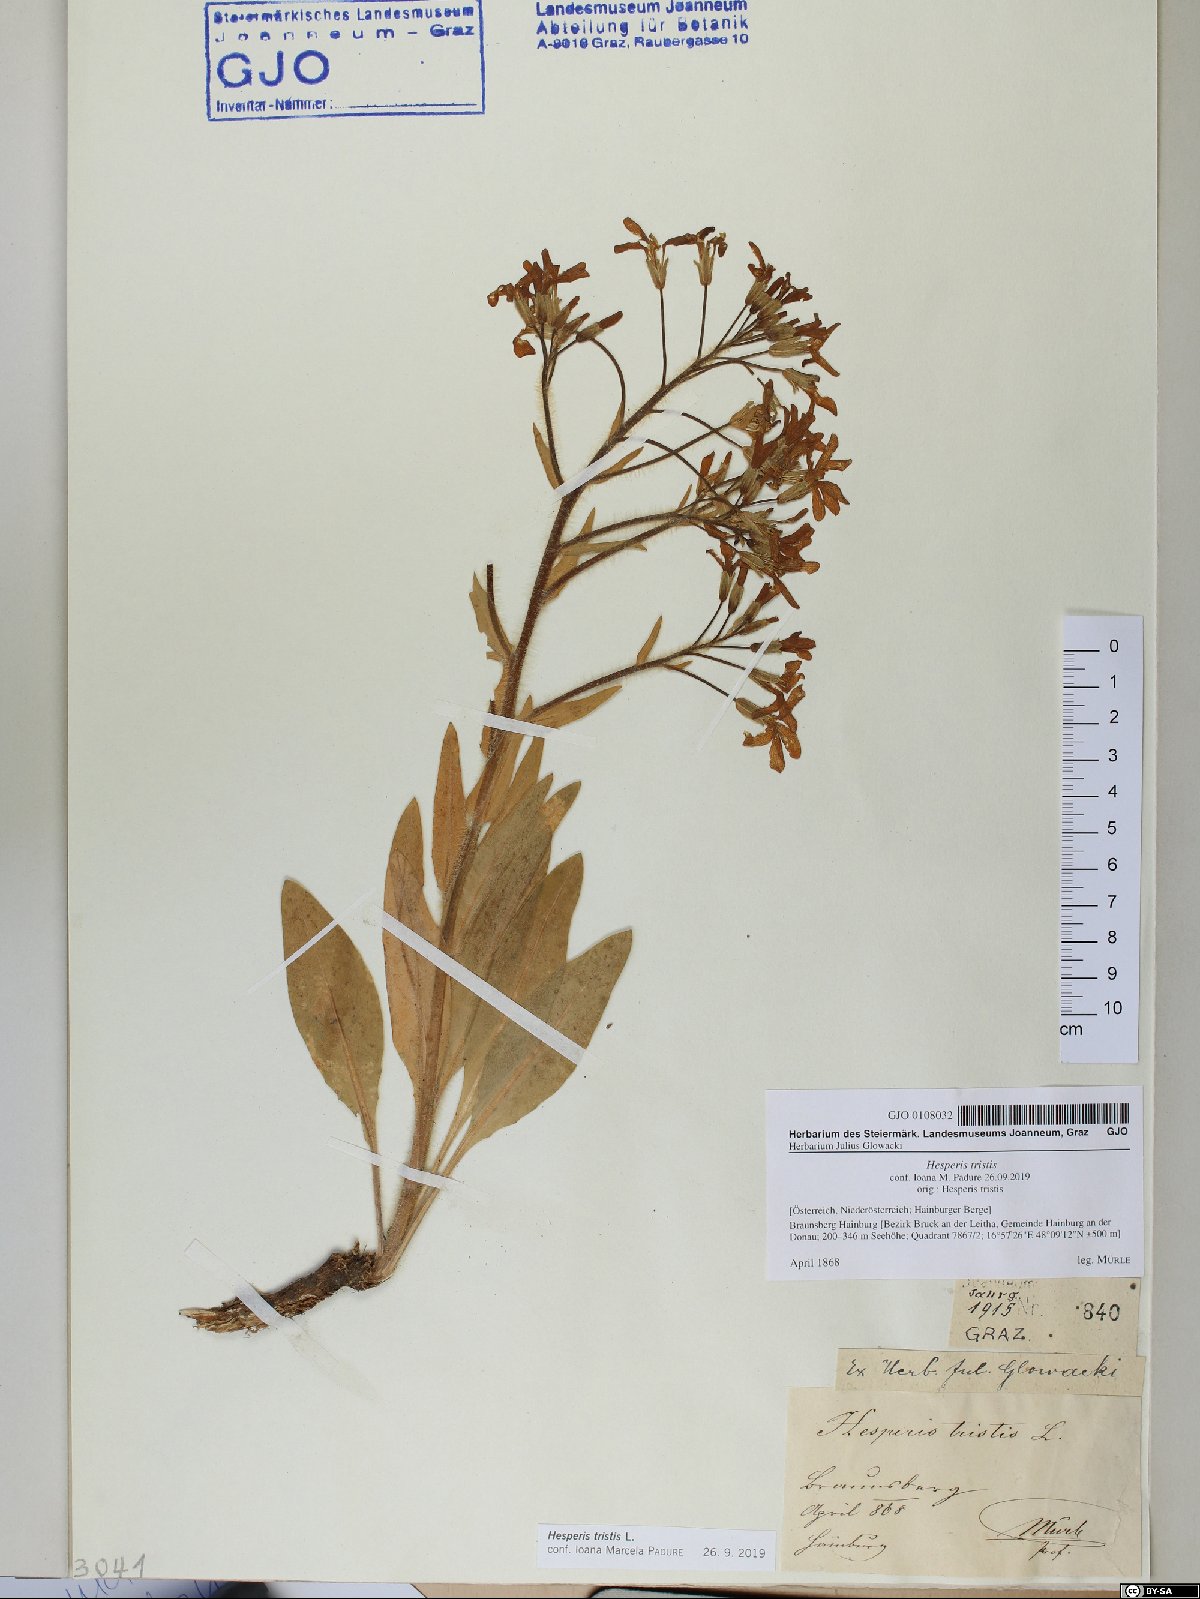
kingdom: Plantae
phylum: Tracheophyta
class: Magnoliopsida
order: Brassicales
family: Brassicaceae
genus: Hesperis
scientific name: Hesperis tristis
